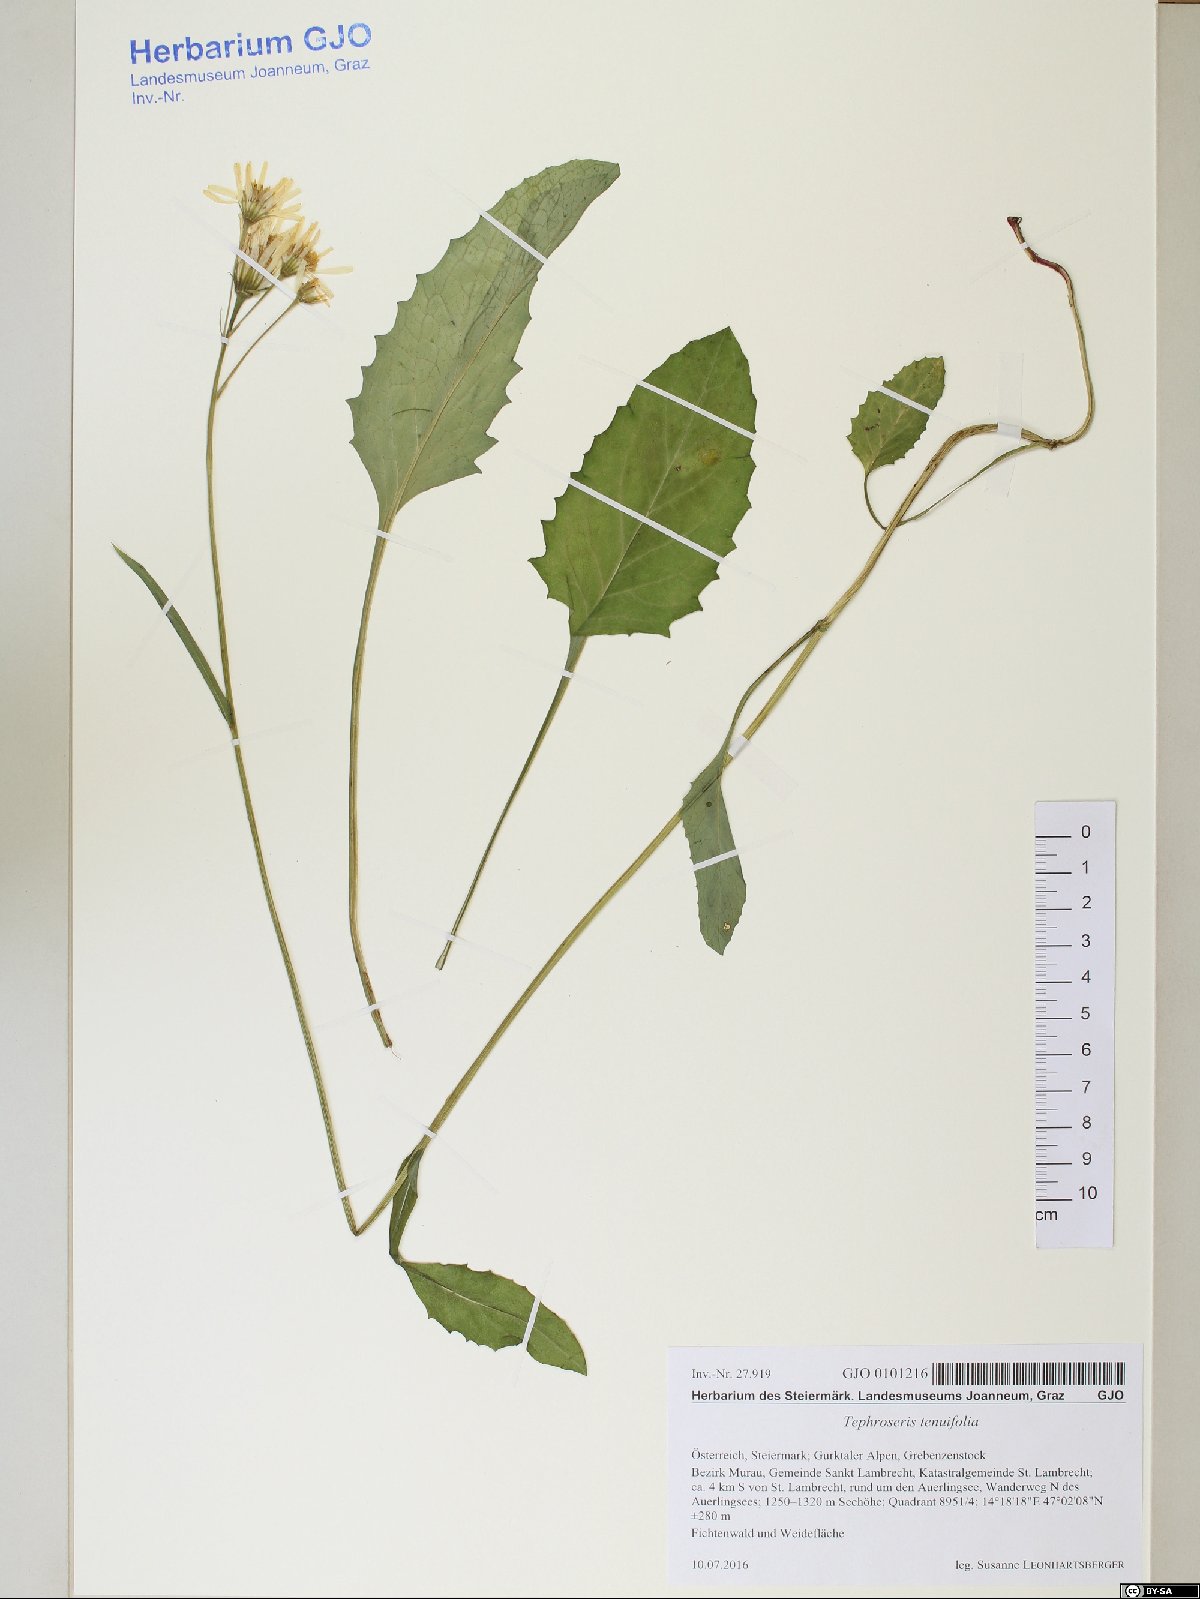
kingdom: Plantae
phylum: Tracheophyta
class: Magnoliopsida
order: Asterales
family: Asteraceae
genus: Tephroseris
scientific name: Tephroseris tenuifolia
